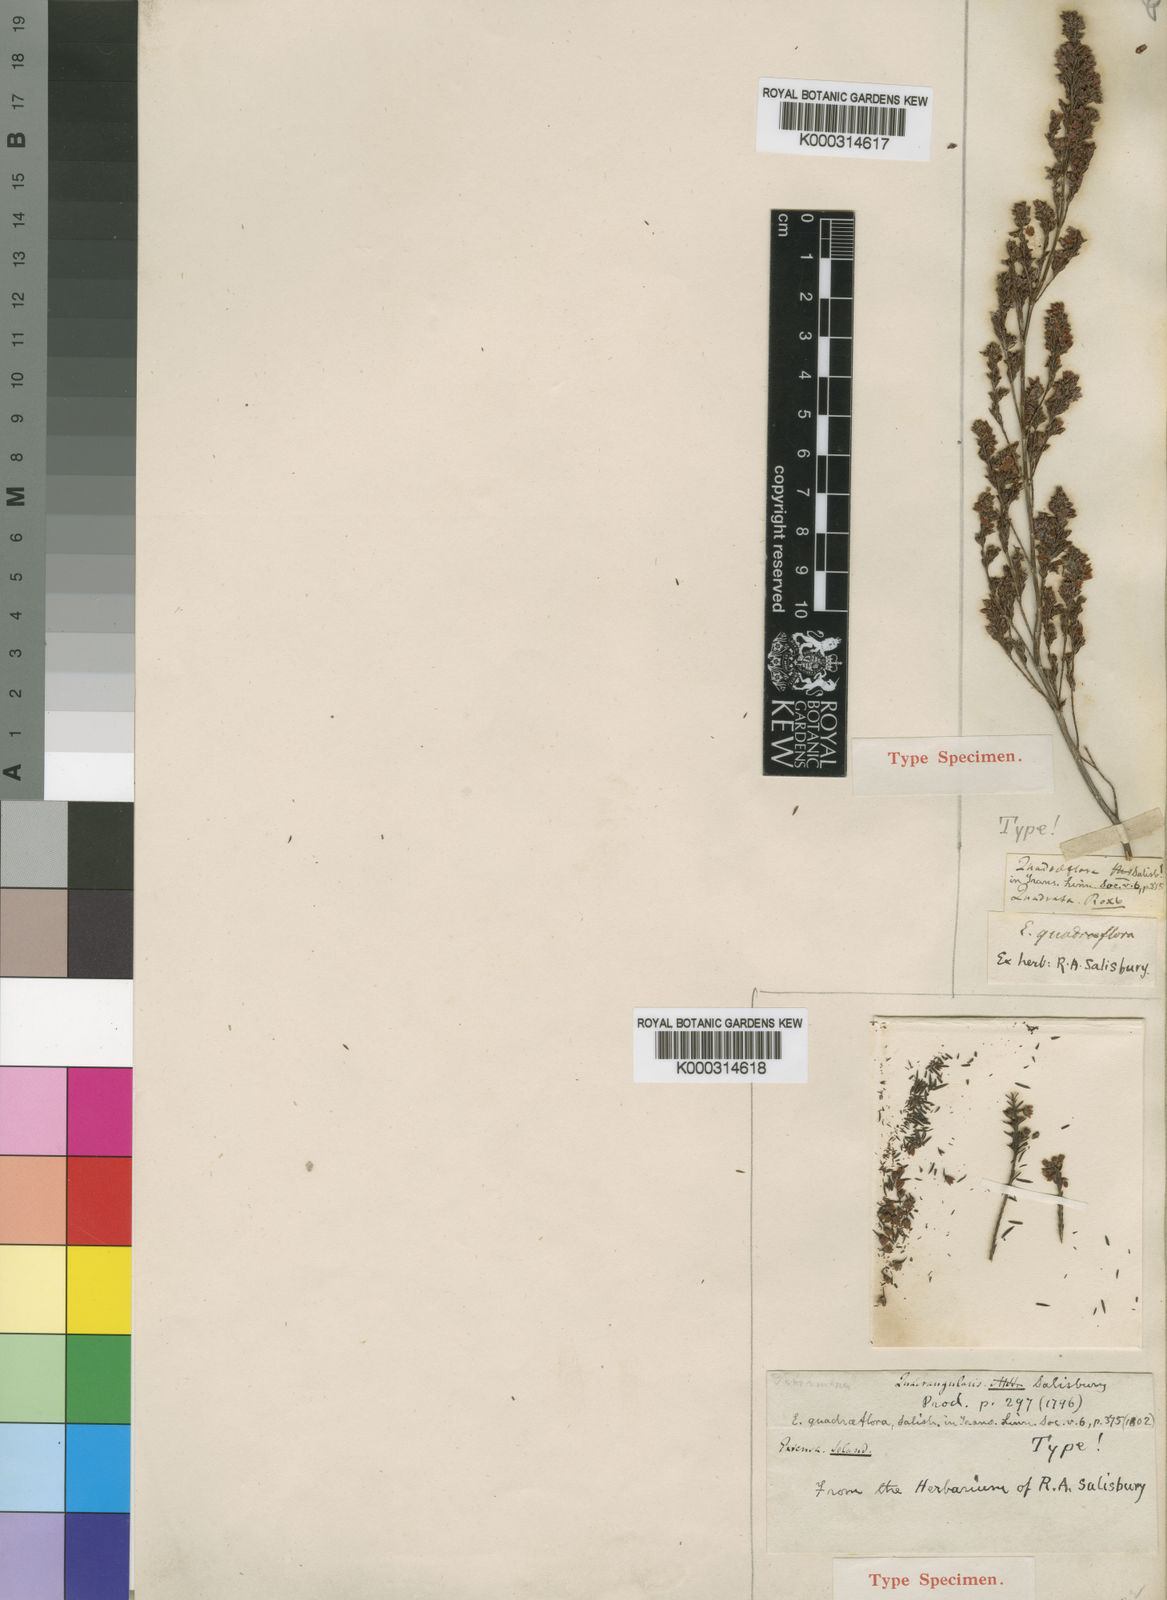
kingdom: Plantae
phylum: Tracheophyta
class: Magnoliopsida
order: Ericales
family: Ericaceae
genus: Erica
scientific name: Erica quadrangularis
